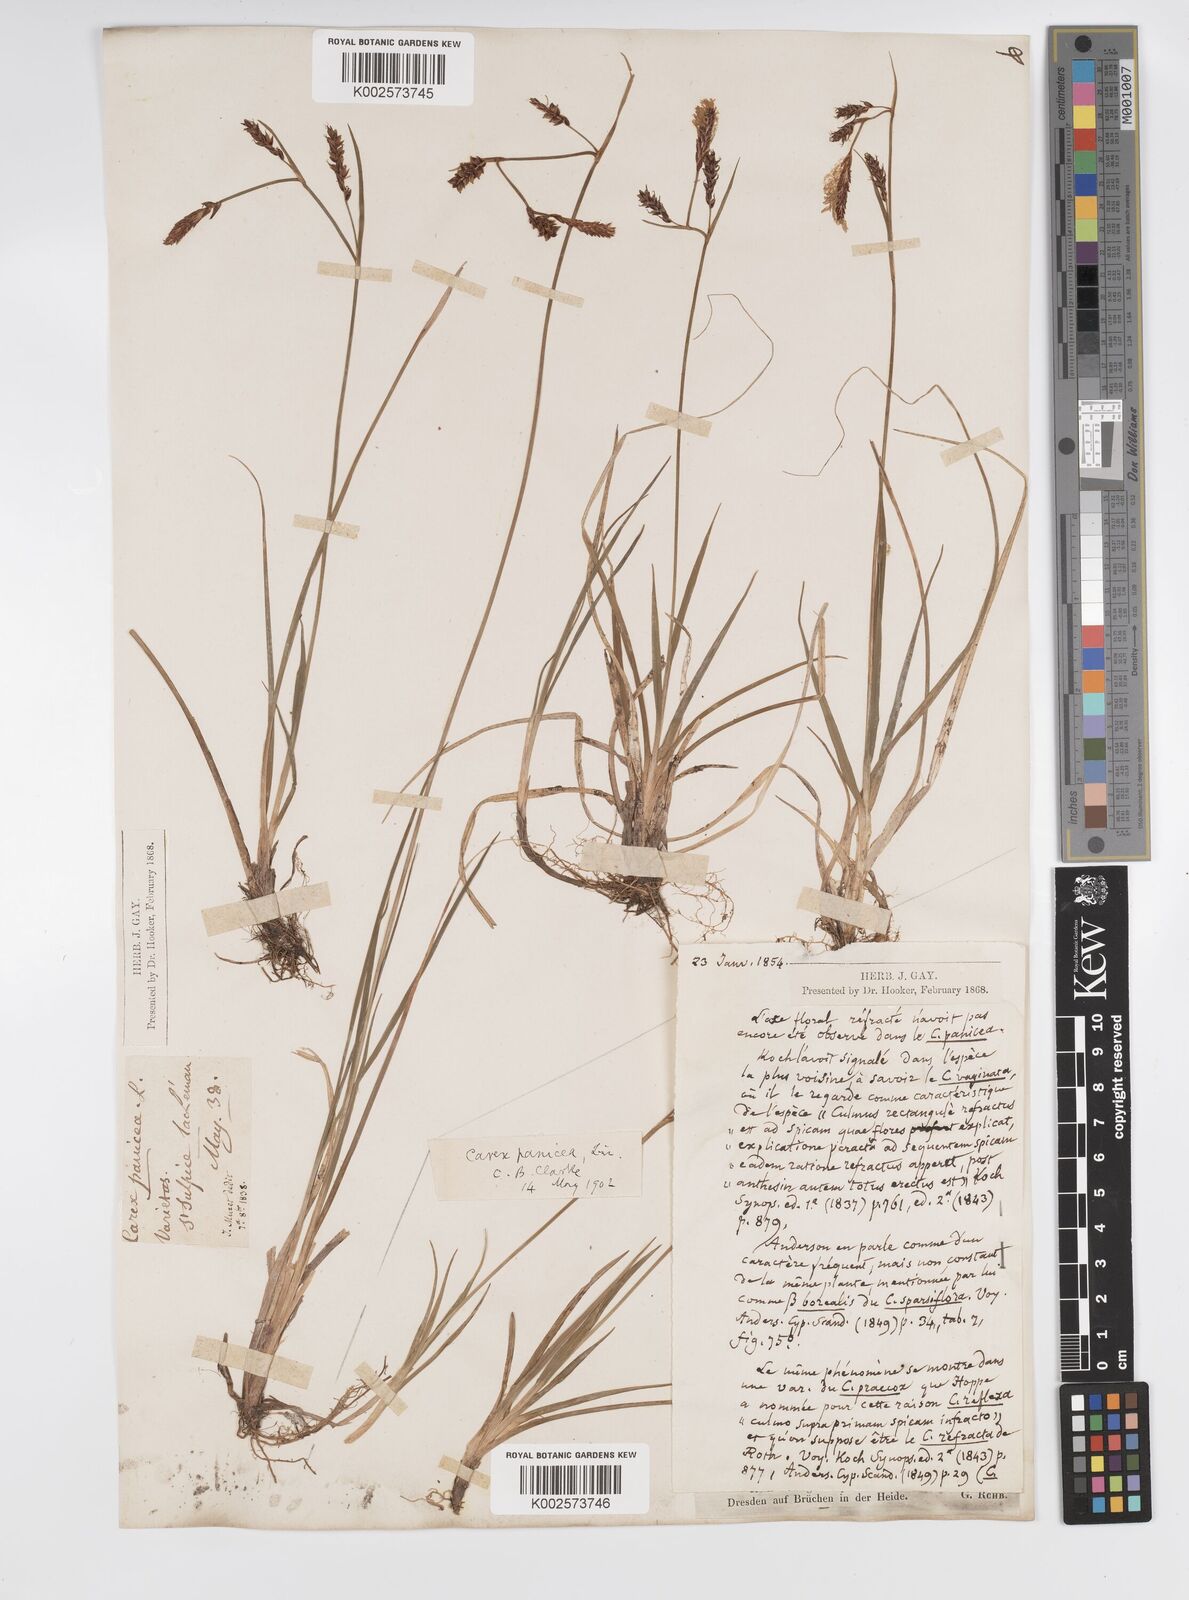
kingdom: Plantae
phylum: Tracheophyta
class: Liliopsida
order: Poales
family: Cyperaceae
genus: Carex
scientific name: Carex panicea
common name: Carnation sedge
